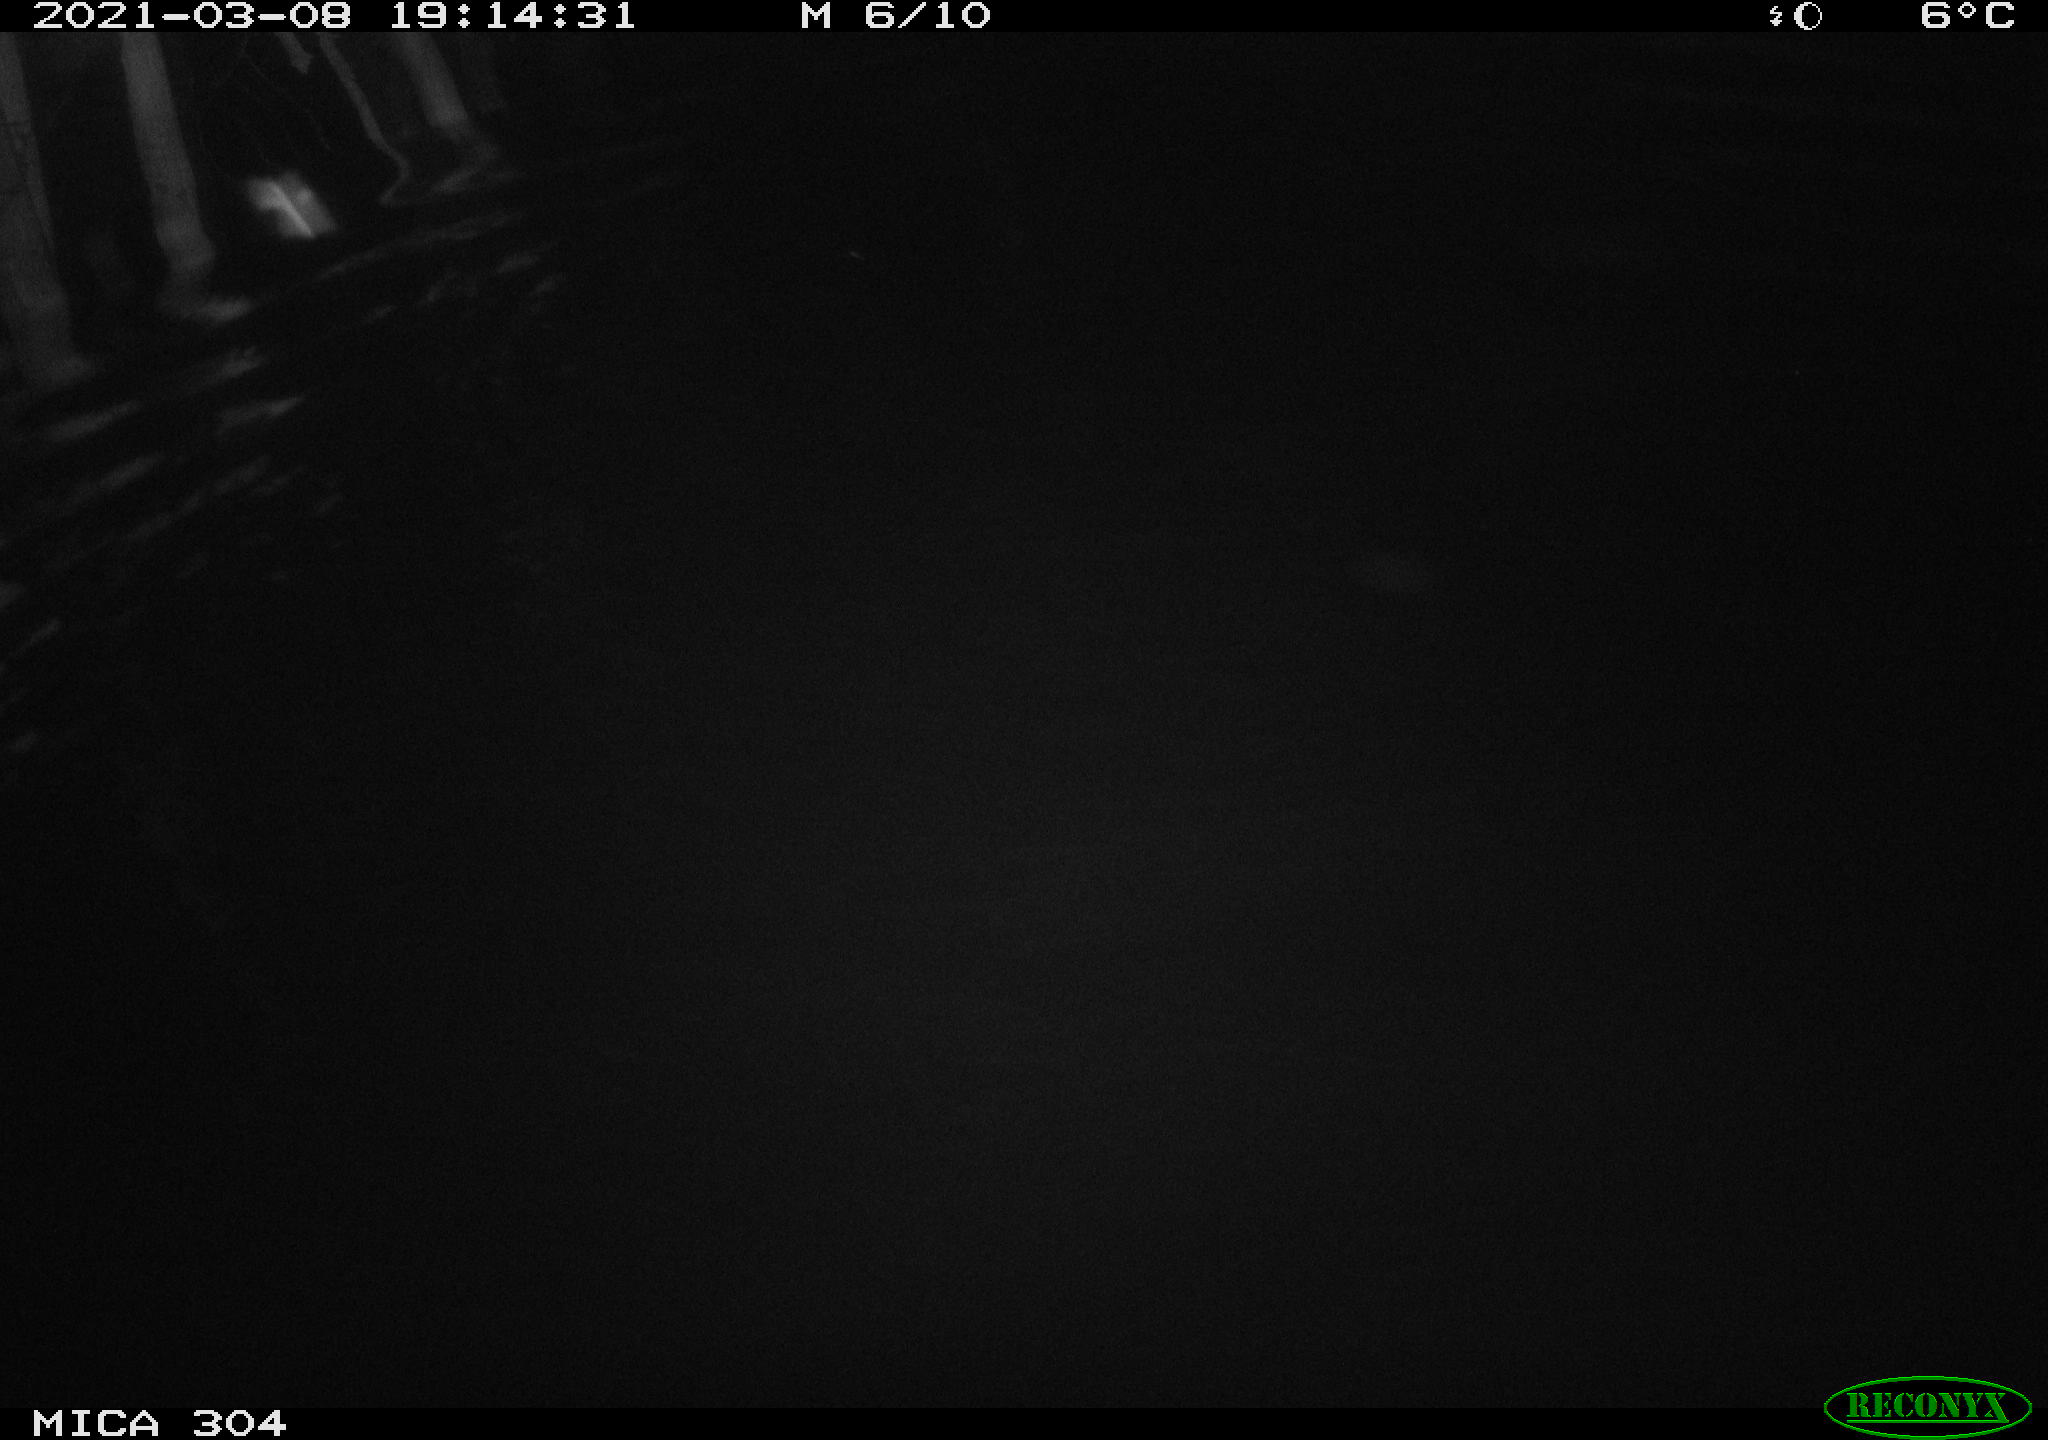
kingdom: Animalia
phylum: Chordata
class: Mammalia
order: Rodentia
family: Cricetidae
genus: Ondatra
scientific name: Ondatra zibethicus
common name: Muskrat
